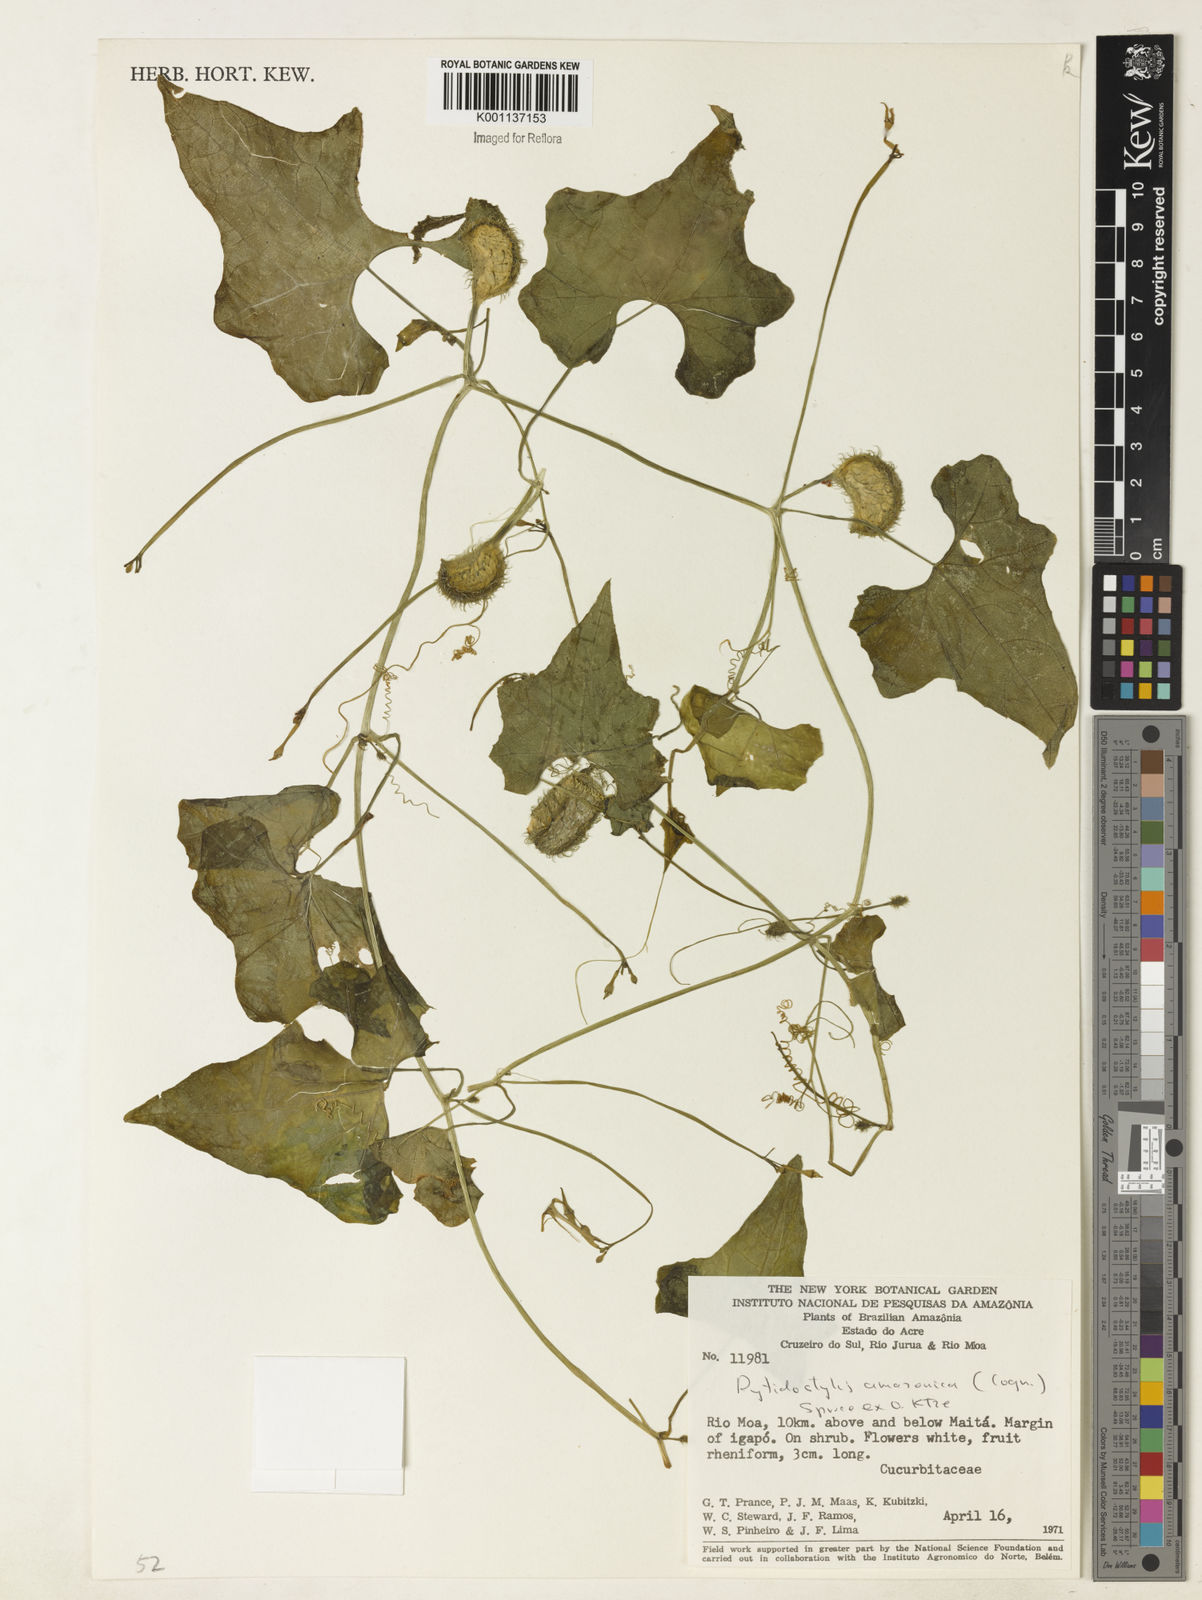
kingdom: Plantae
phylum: Tracheophyta
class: Magnoliopsida
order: Cucurbitales
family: Cucurbitaceae
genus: Cyclanthera
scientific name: Cyclanthera carthagenensis
